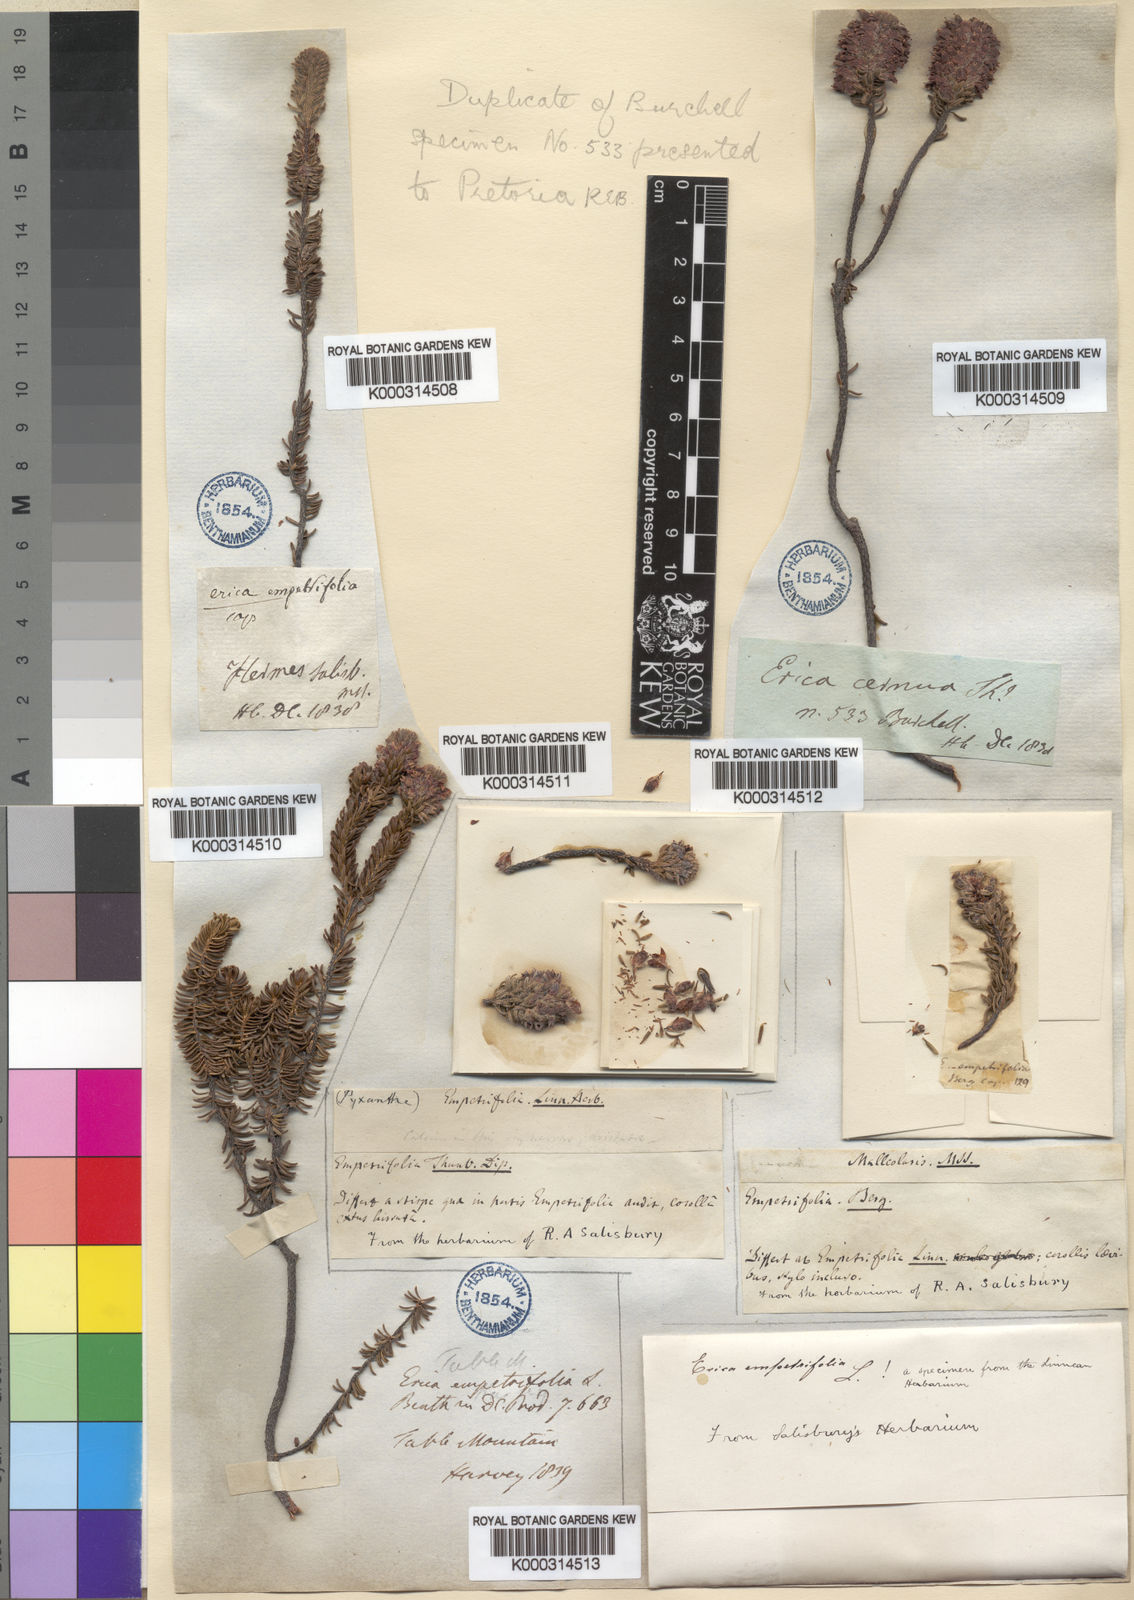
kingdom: Plantae
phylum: Tracheophyta
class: Magnoliopsida
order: Ericales
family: Ericaceae
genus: Erica
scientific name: Erica empetrina
